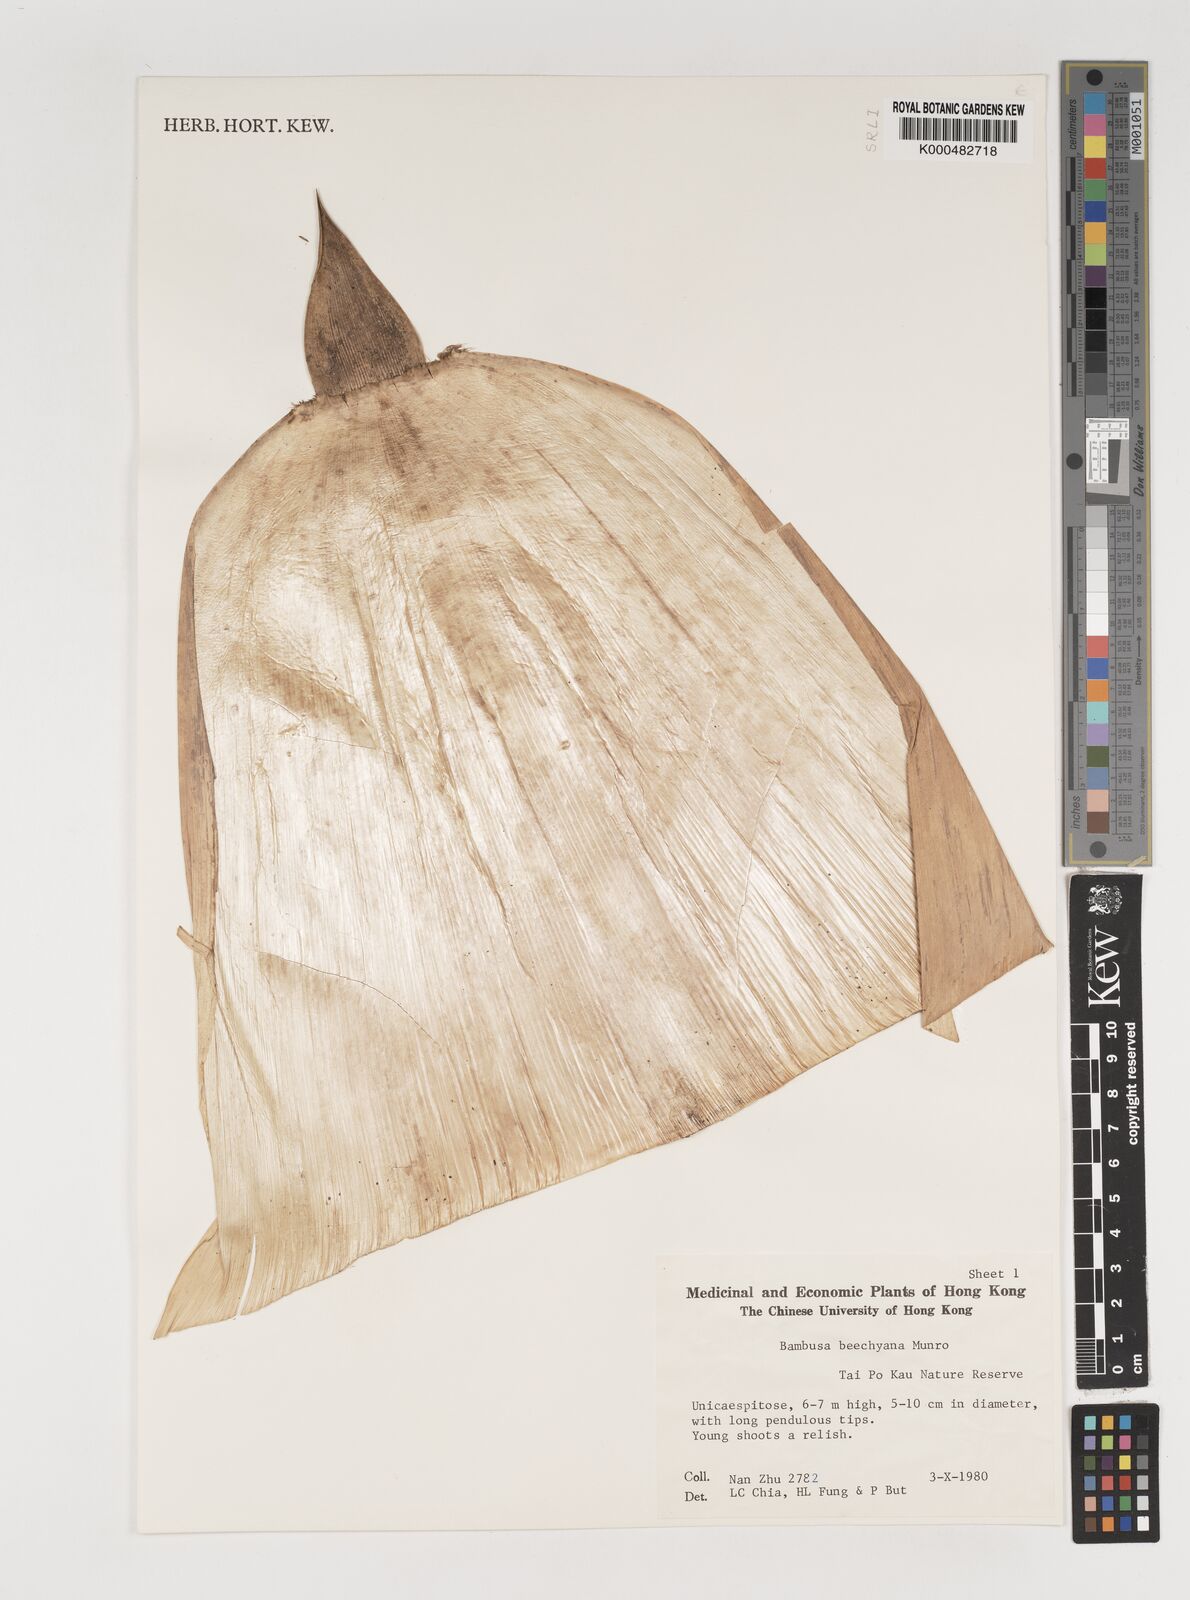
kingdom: Plantae
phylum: Tracheophyta
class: Liliopsida
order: Poales
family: Poaceae
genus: Bambusa
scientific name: Bambusa beecheyana
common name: Beechey's bamboo
